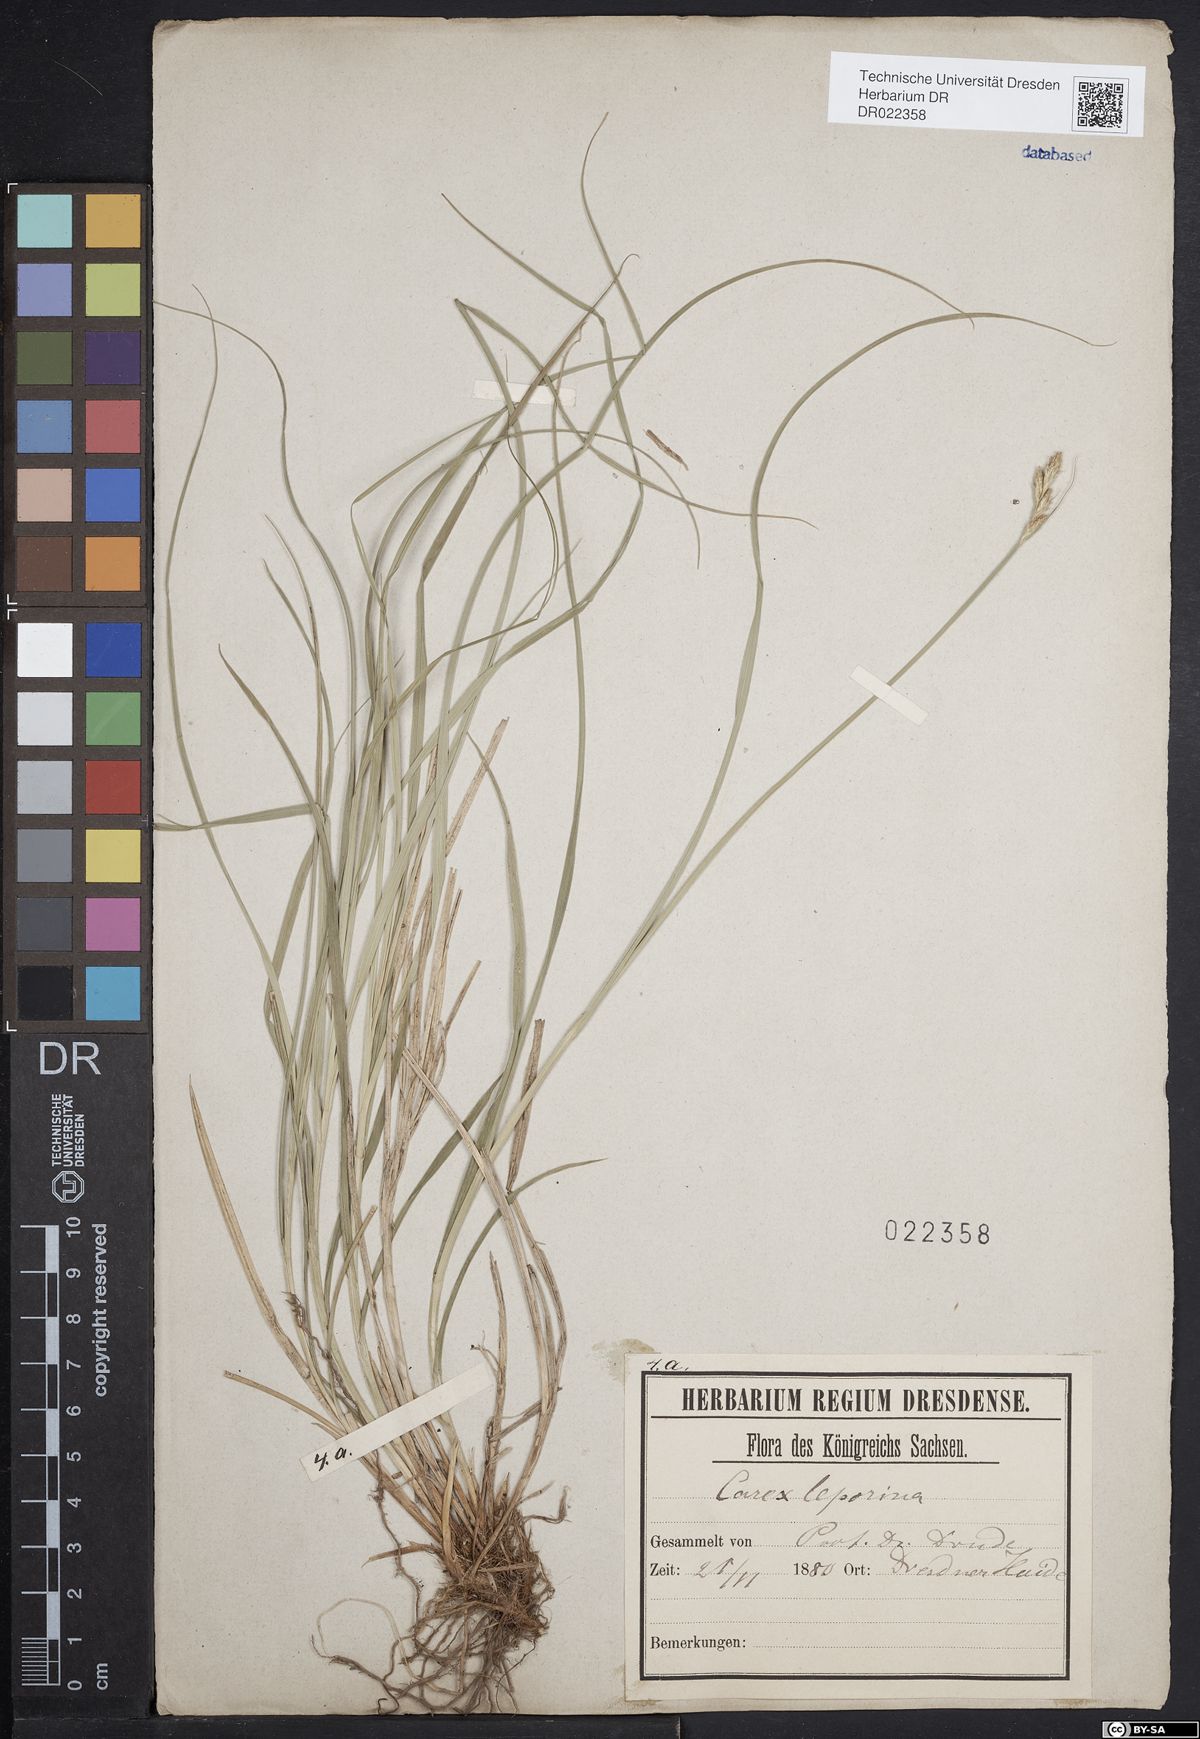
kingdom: Plantae
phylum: Tracheophyta
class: Liliopsida
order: Poales
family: Cyperaceae
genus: Carex
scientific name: Carex leporina
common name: Oval sedge
